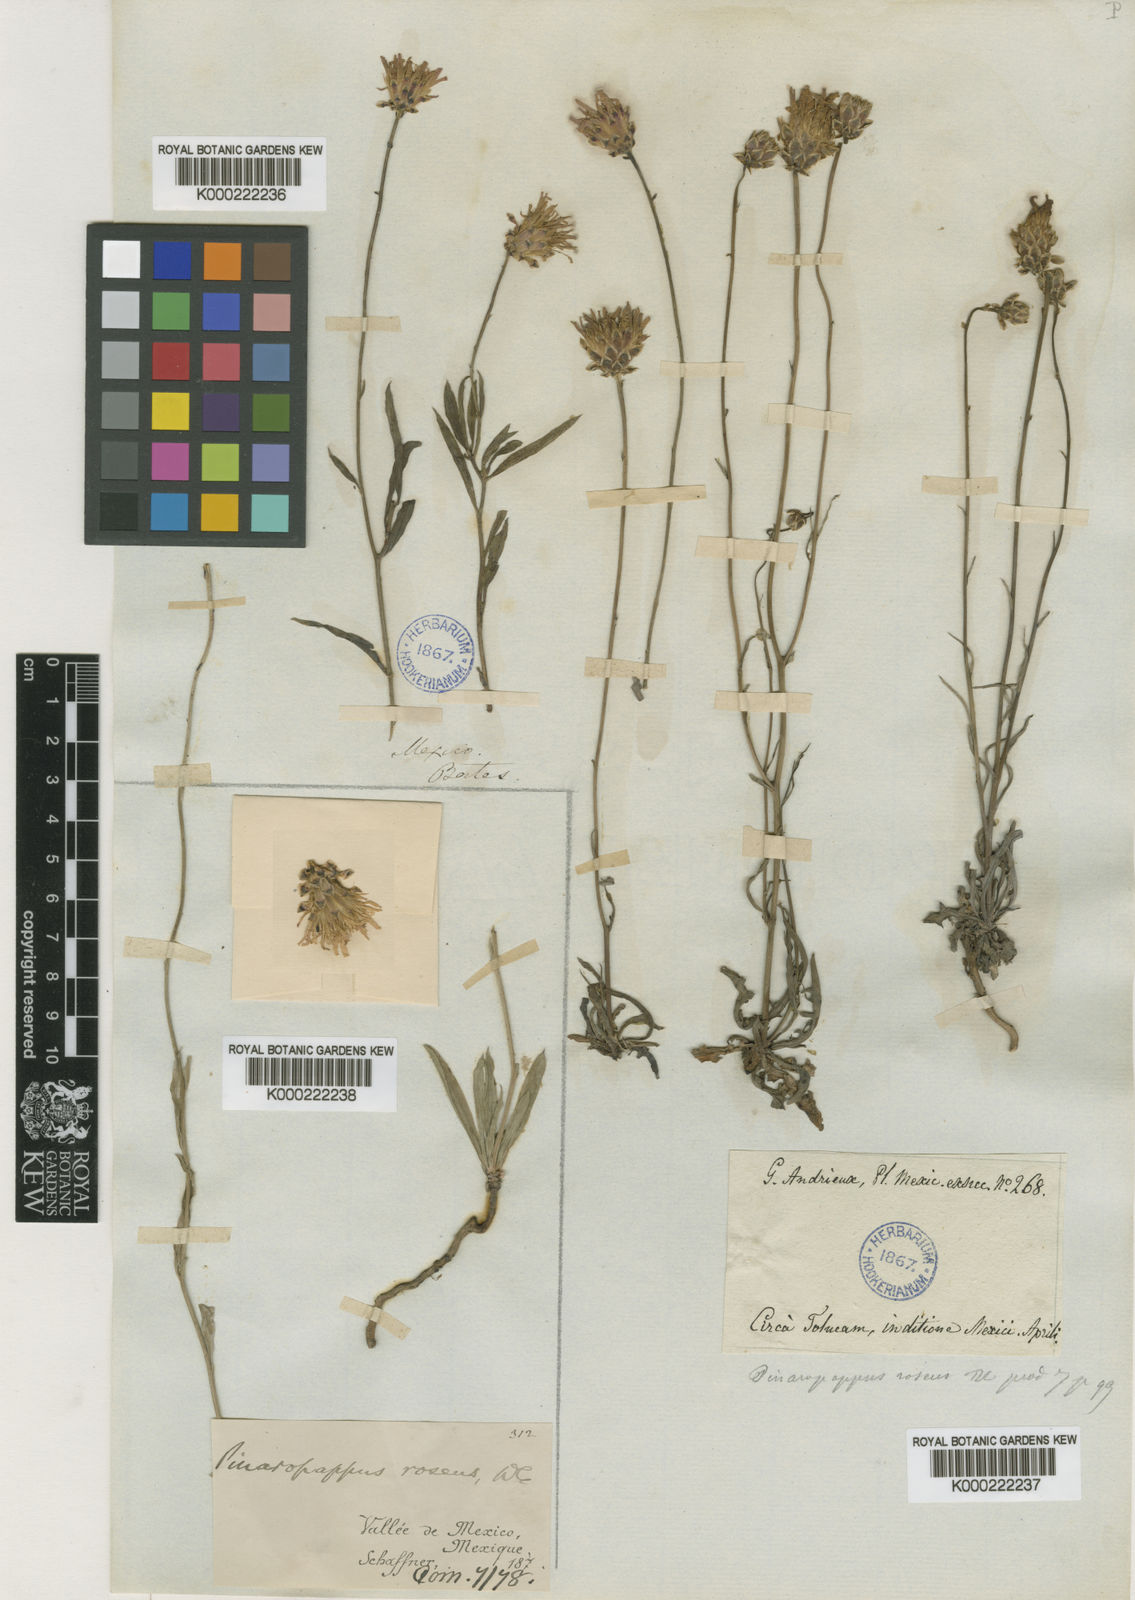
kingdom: Plantae
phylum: Tracheophyta
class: Magnoliopsida
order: Asterales
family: Asteraceae
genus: Pinaropappus
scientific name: Pinaropappus
